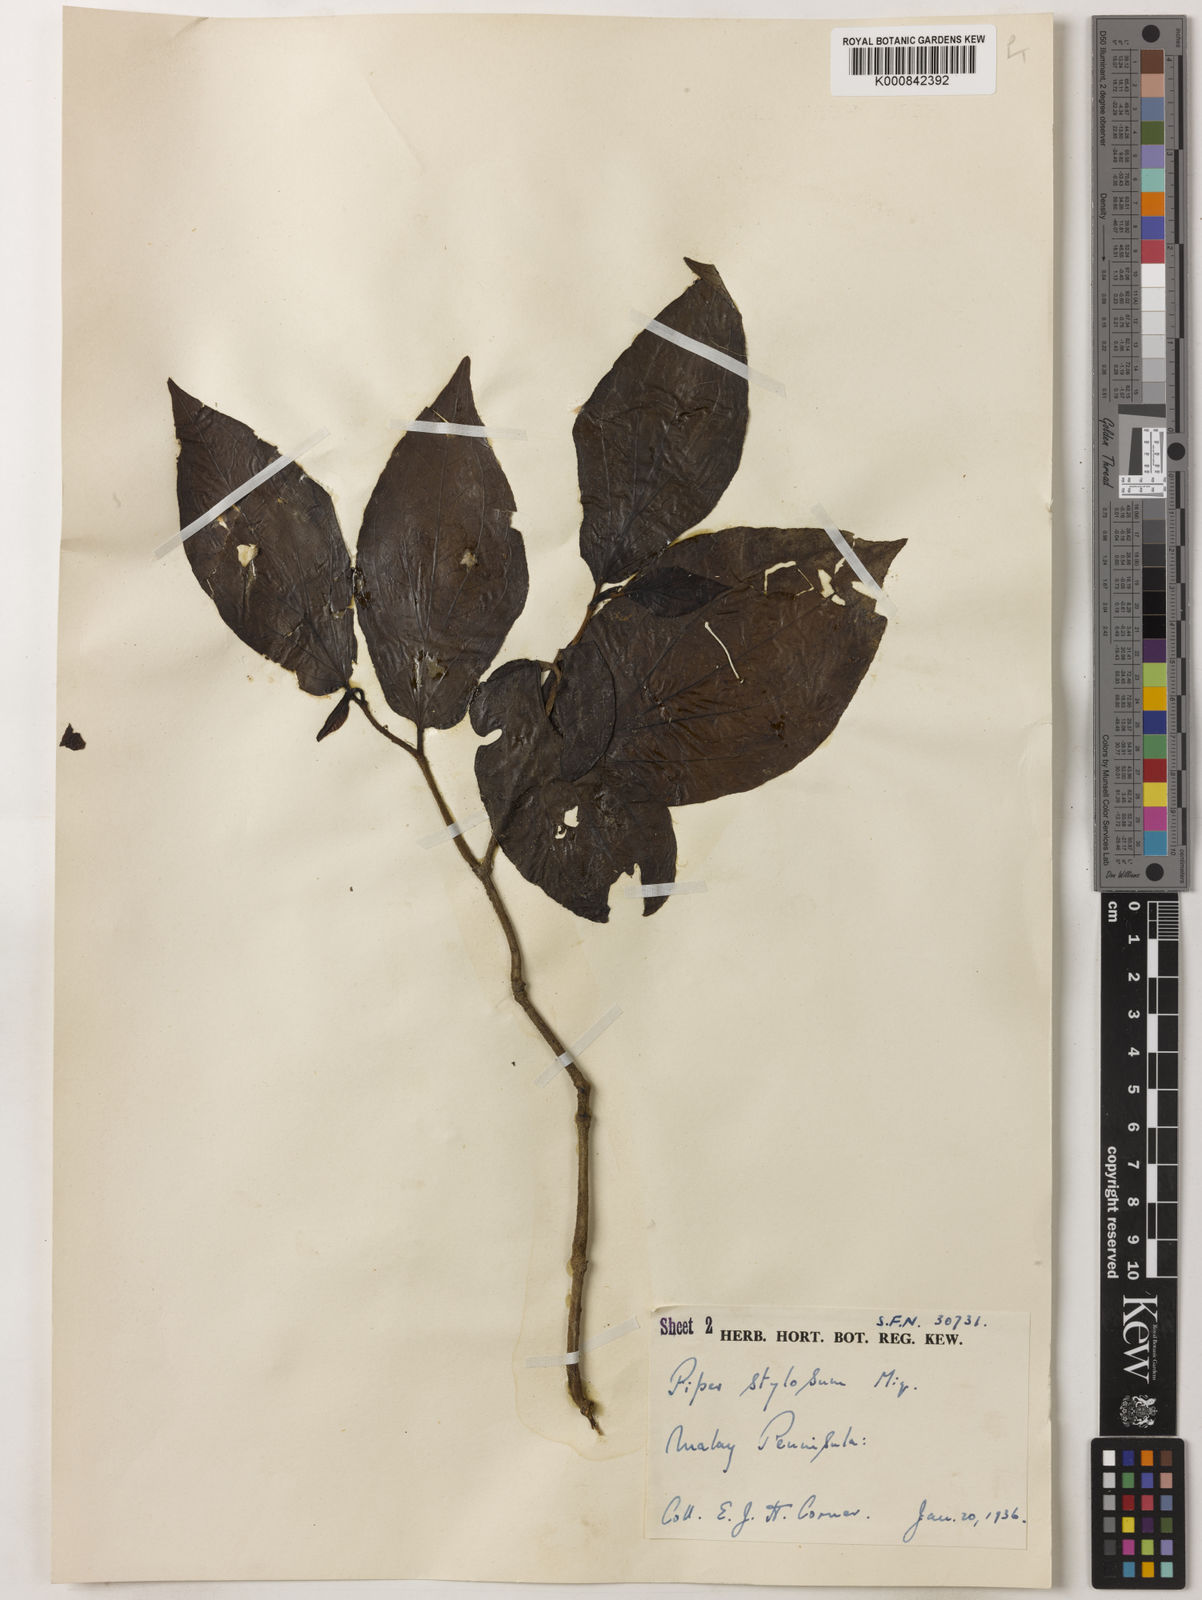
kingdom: Plantae
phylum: Tracheophyta
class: Magnoliopsida
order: Piperales
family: Piperaceae
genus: Piper
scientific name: Piper rostratum
